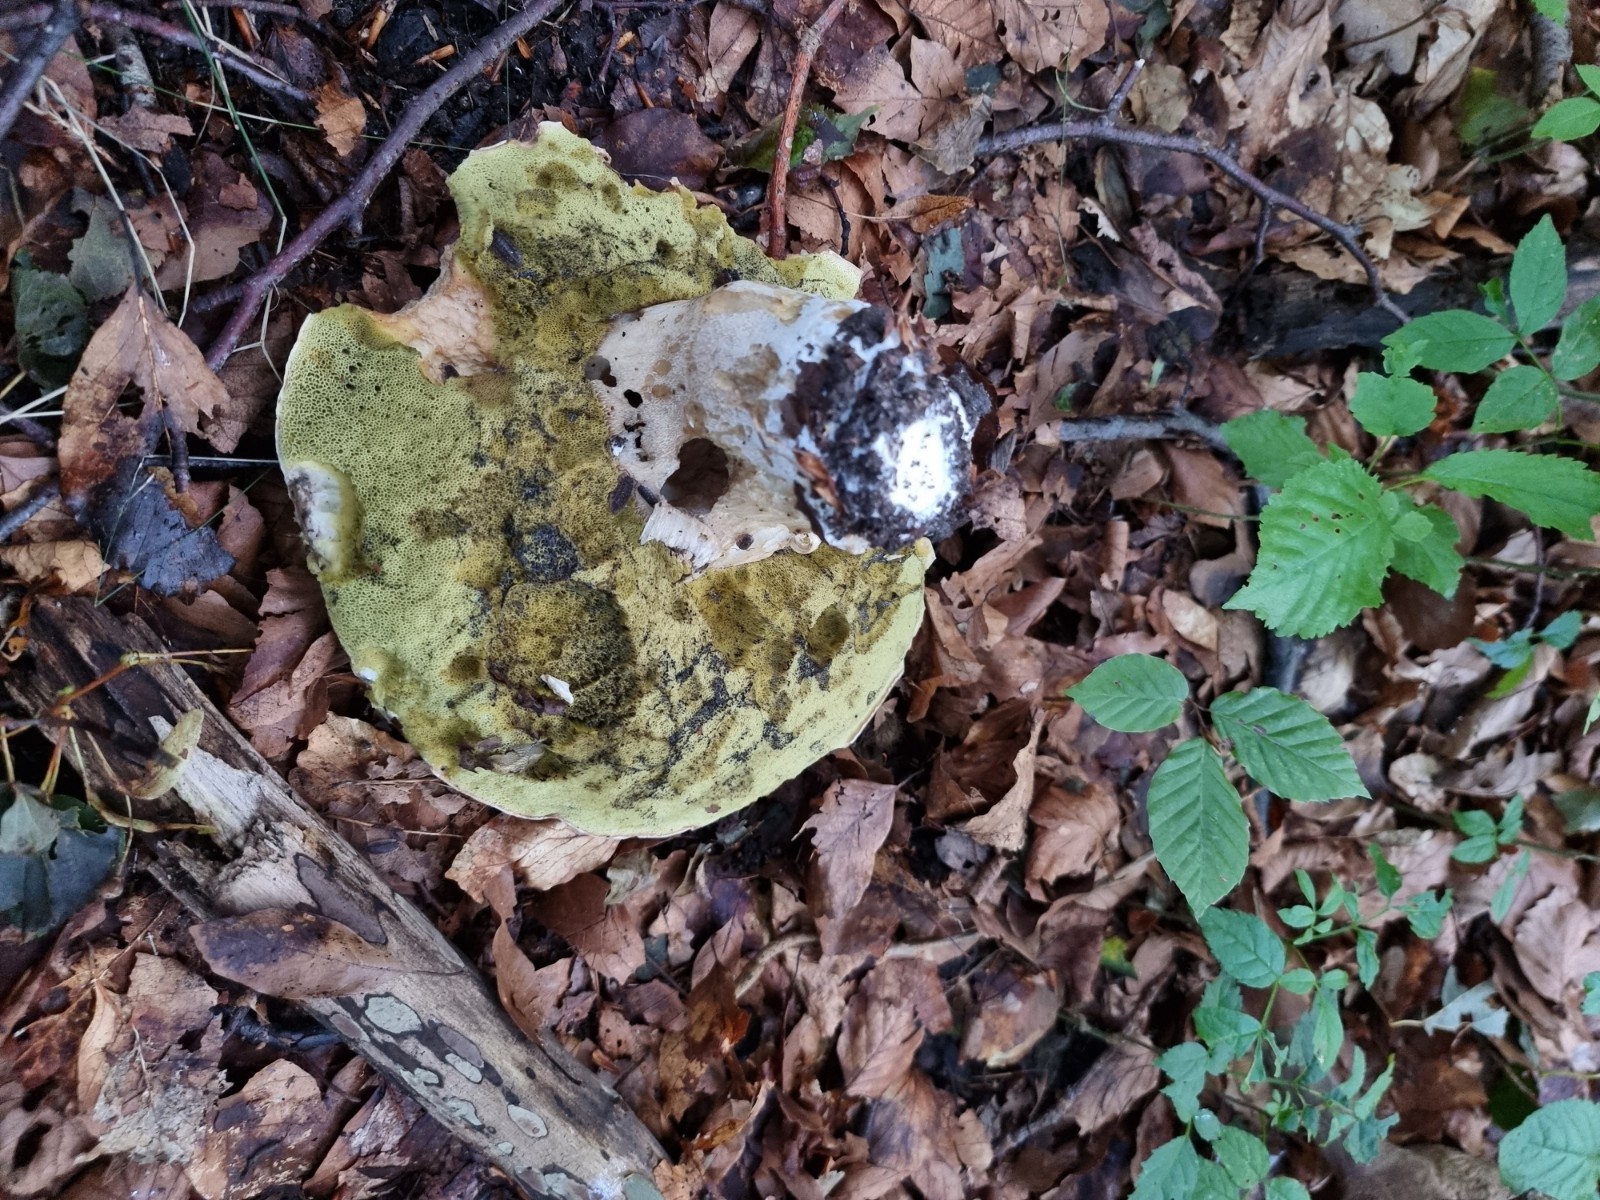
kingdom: Fungi
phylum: Basidiomycota
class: Agaricomycetes
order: Boletales
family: Boletaceae
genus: Boletus
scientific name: Boletus edulis
